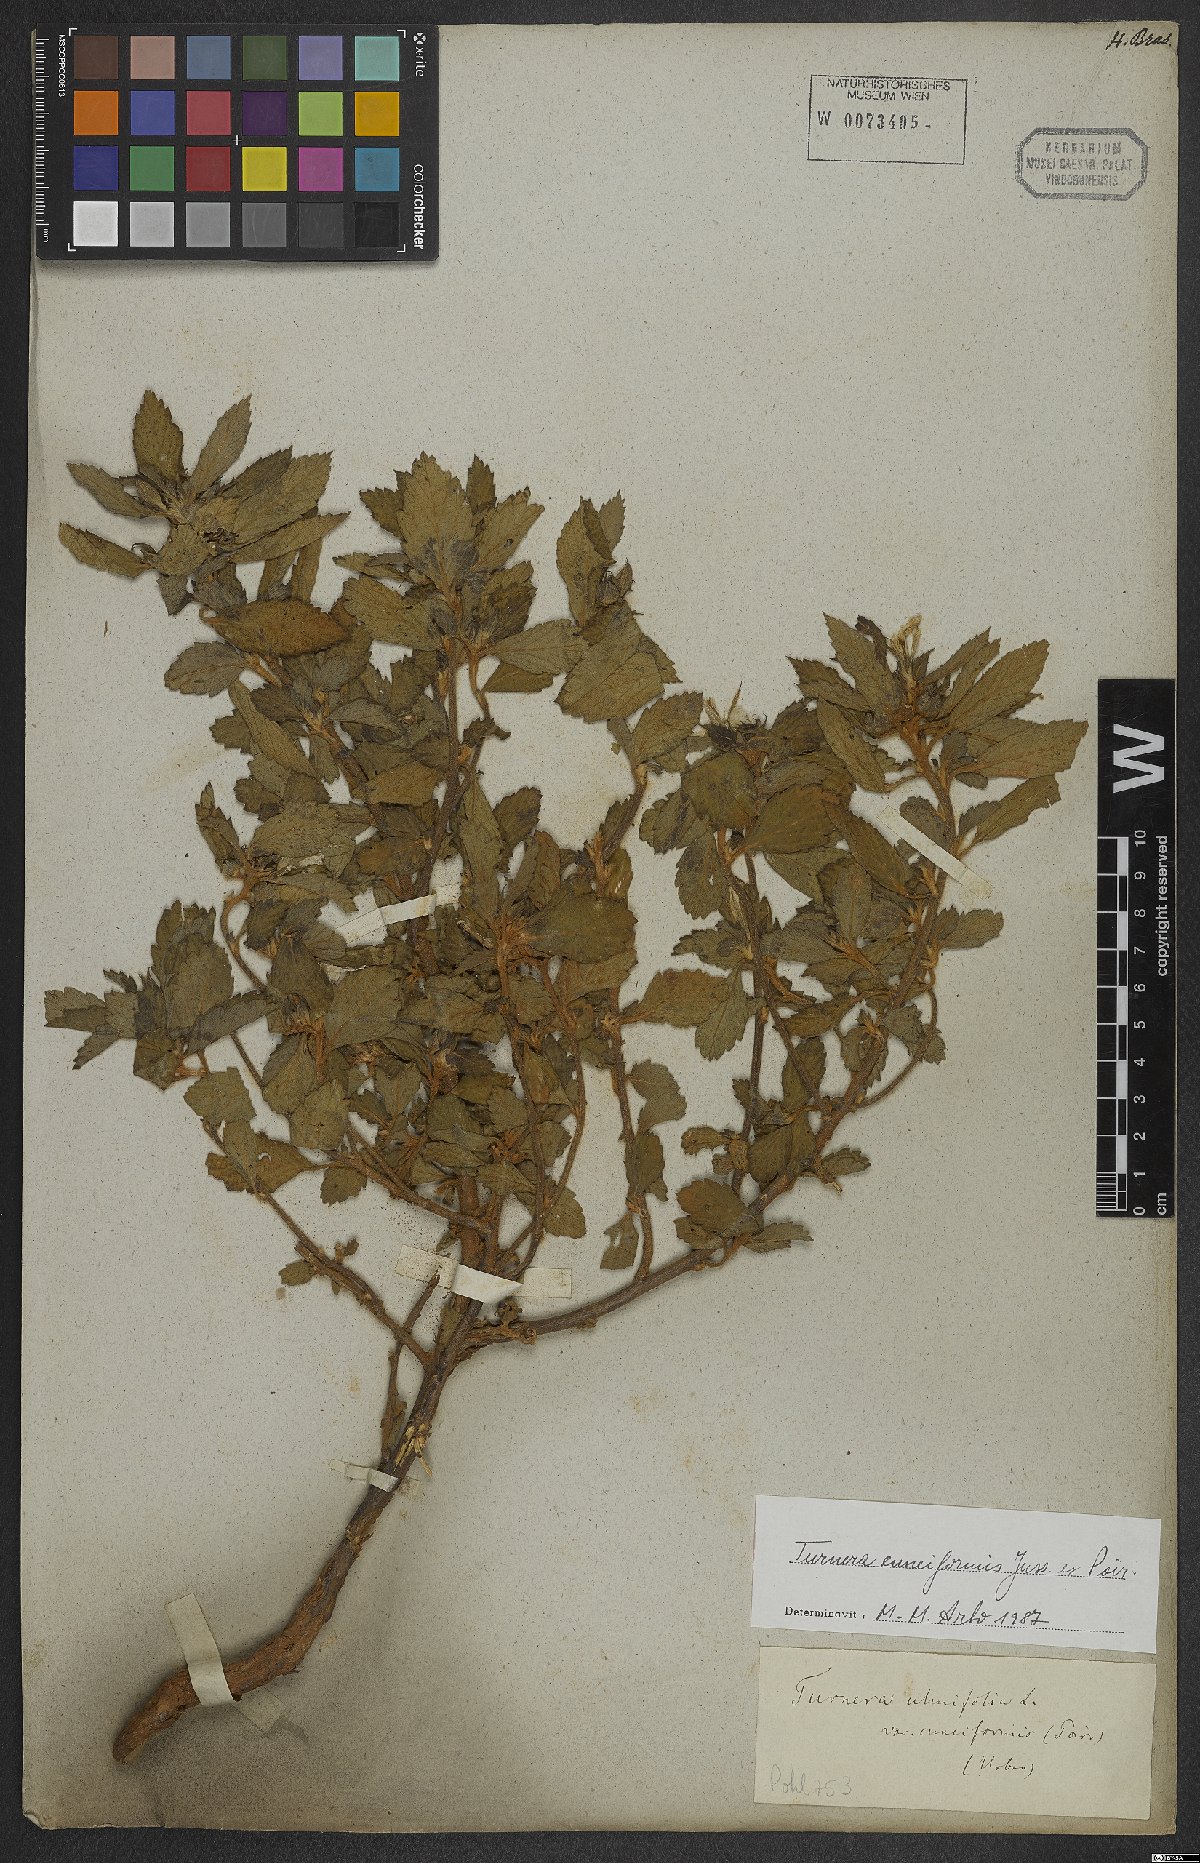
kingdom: Plantae
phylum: Tracheophyta
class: Magnoliopsida
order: Malpighiales
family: Turneraceae
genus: Turnera
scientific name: Turnera cuneiformis
